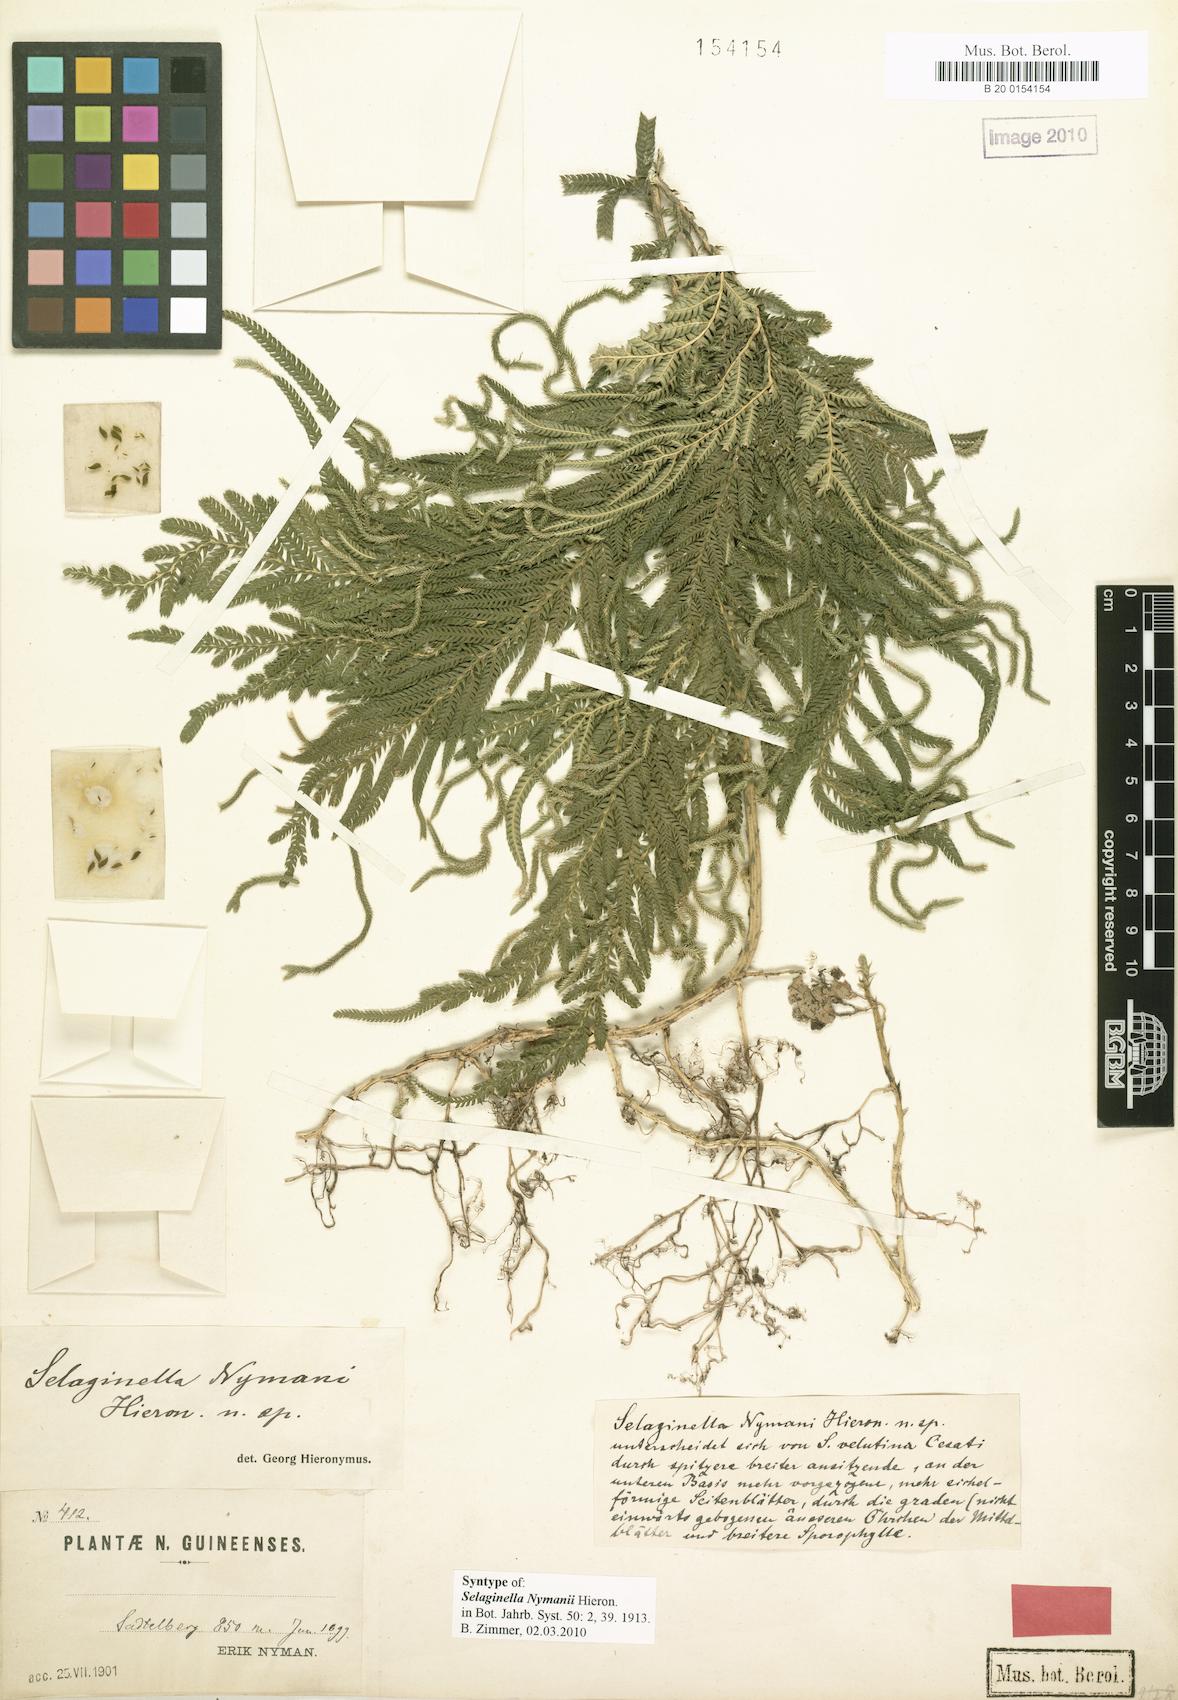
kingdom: Plantae
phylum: Tracheophyta
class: Lycopodiopsida
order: Selaginellales
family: Selaginellaceae
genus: Selaginella
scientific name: Selaginella gracilis
